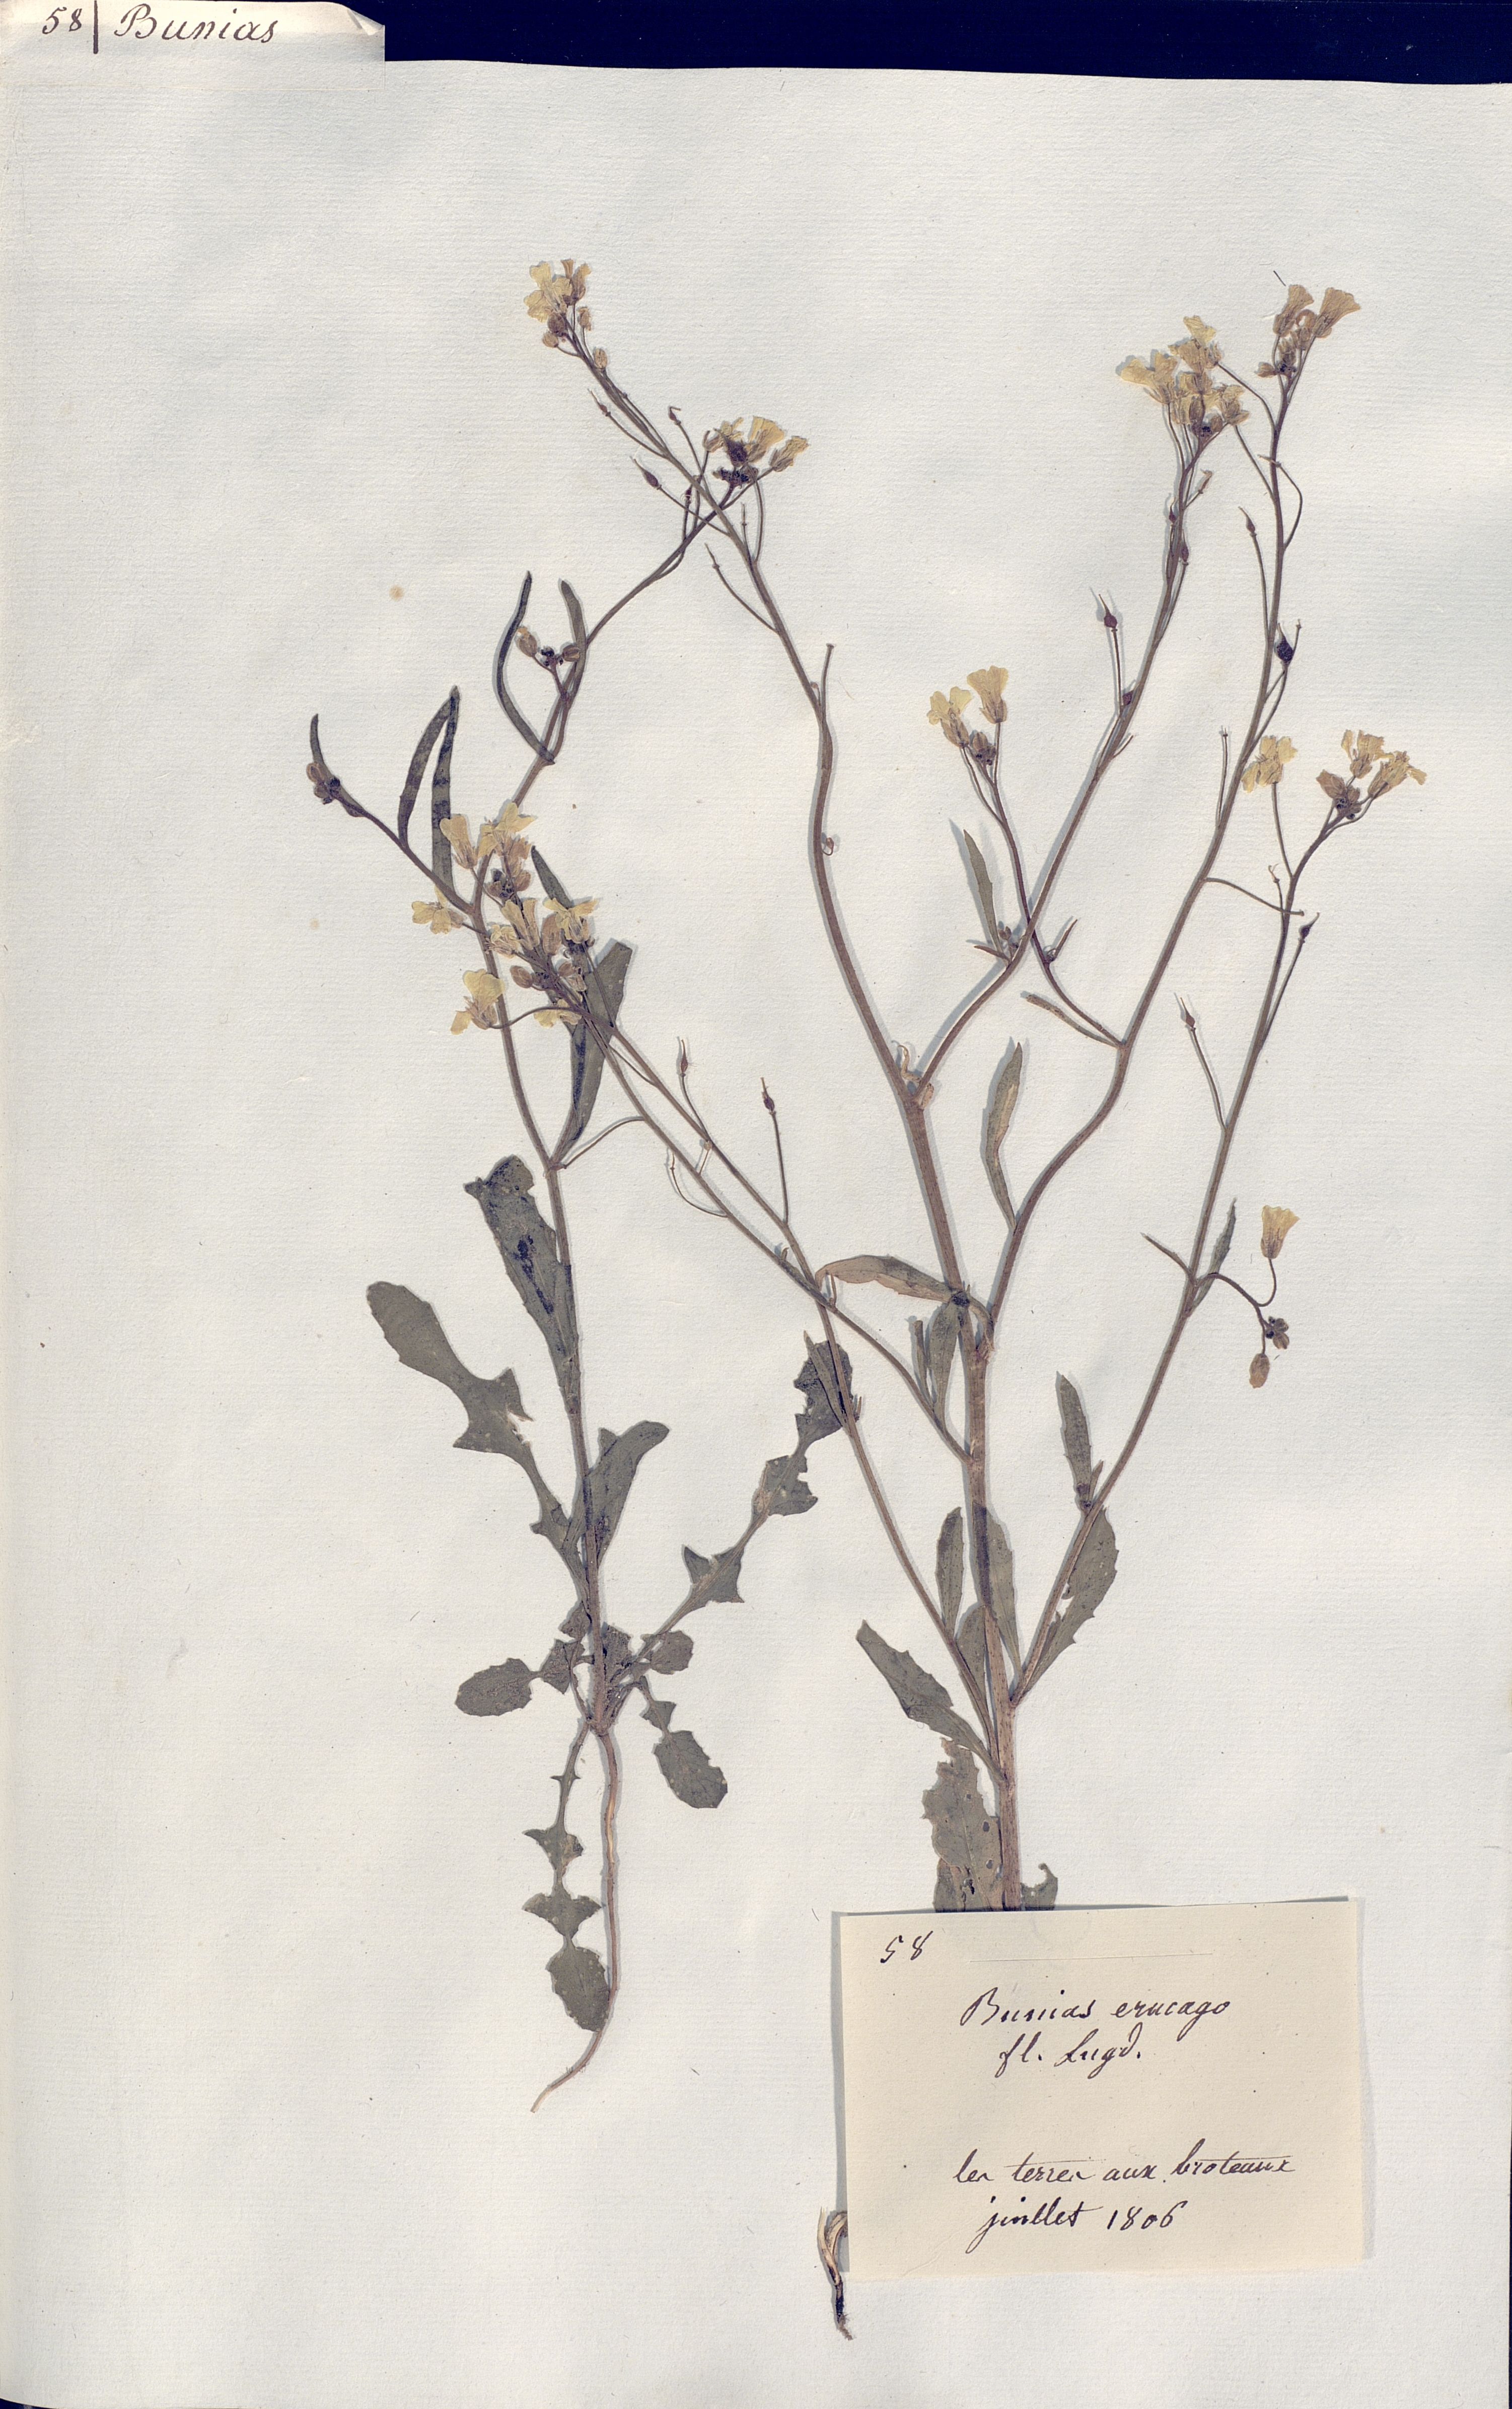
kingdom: Plantae
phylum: Tracheophyta
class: Magnoliopsida
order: Brassicales
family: Brassicaceae
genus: Bunias
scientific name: Bunias erucago
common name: Southern warty-cabbage
